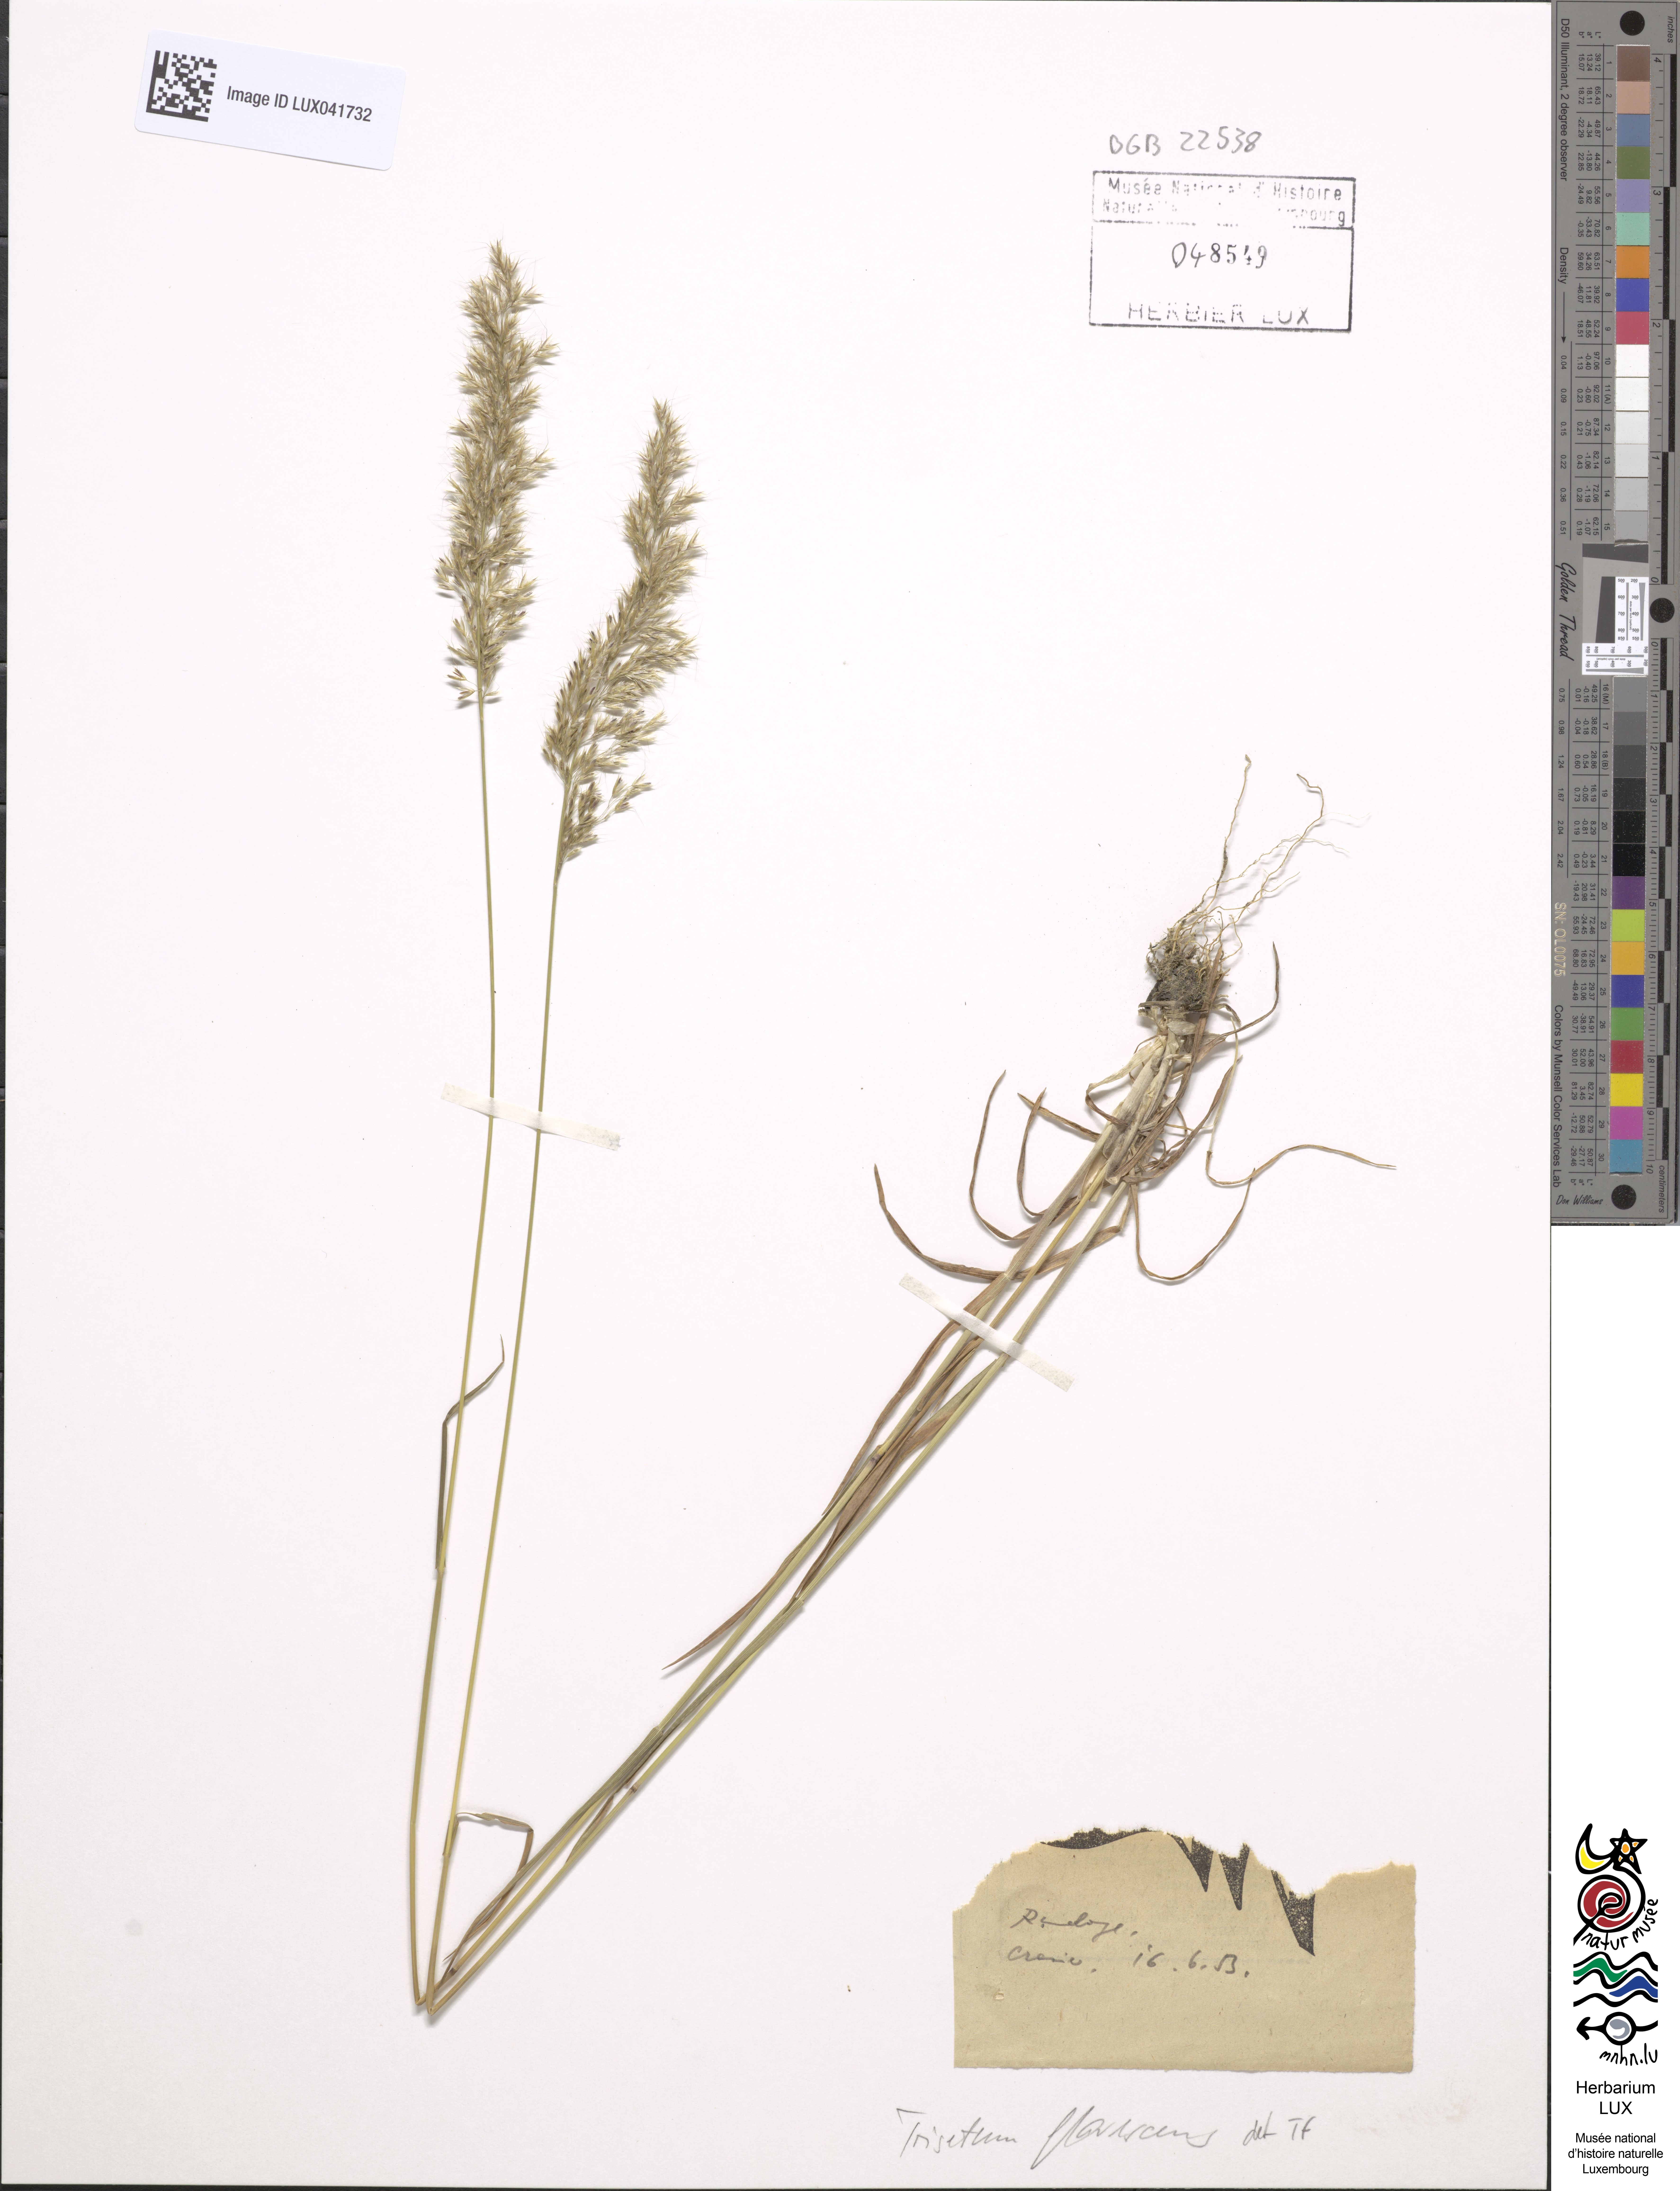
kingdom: Plantae
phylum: Tracheophyta
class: Liliopsida
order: Poales
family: Poaceae
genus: Trisetum
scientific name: Trisetum flavescens
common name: Yellow oat-grass
